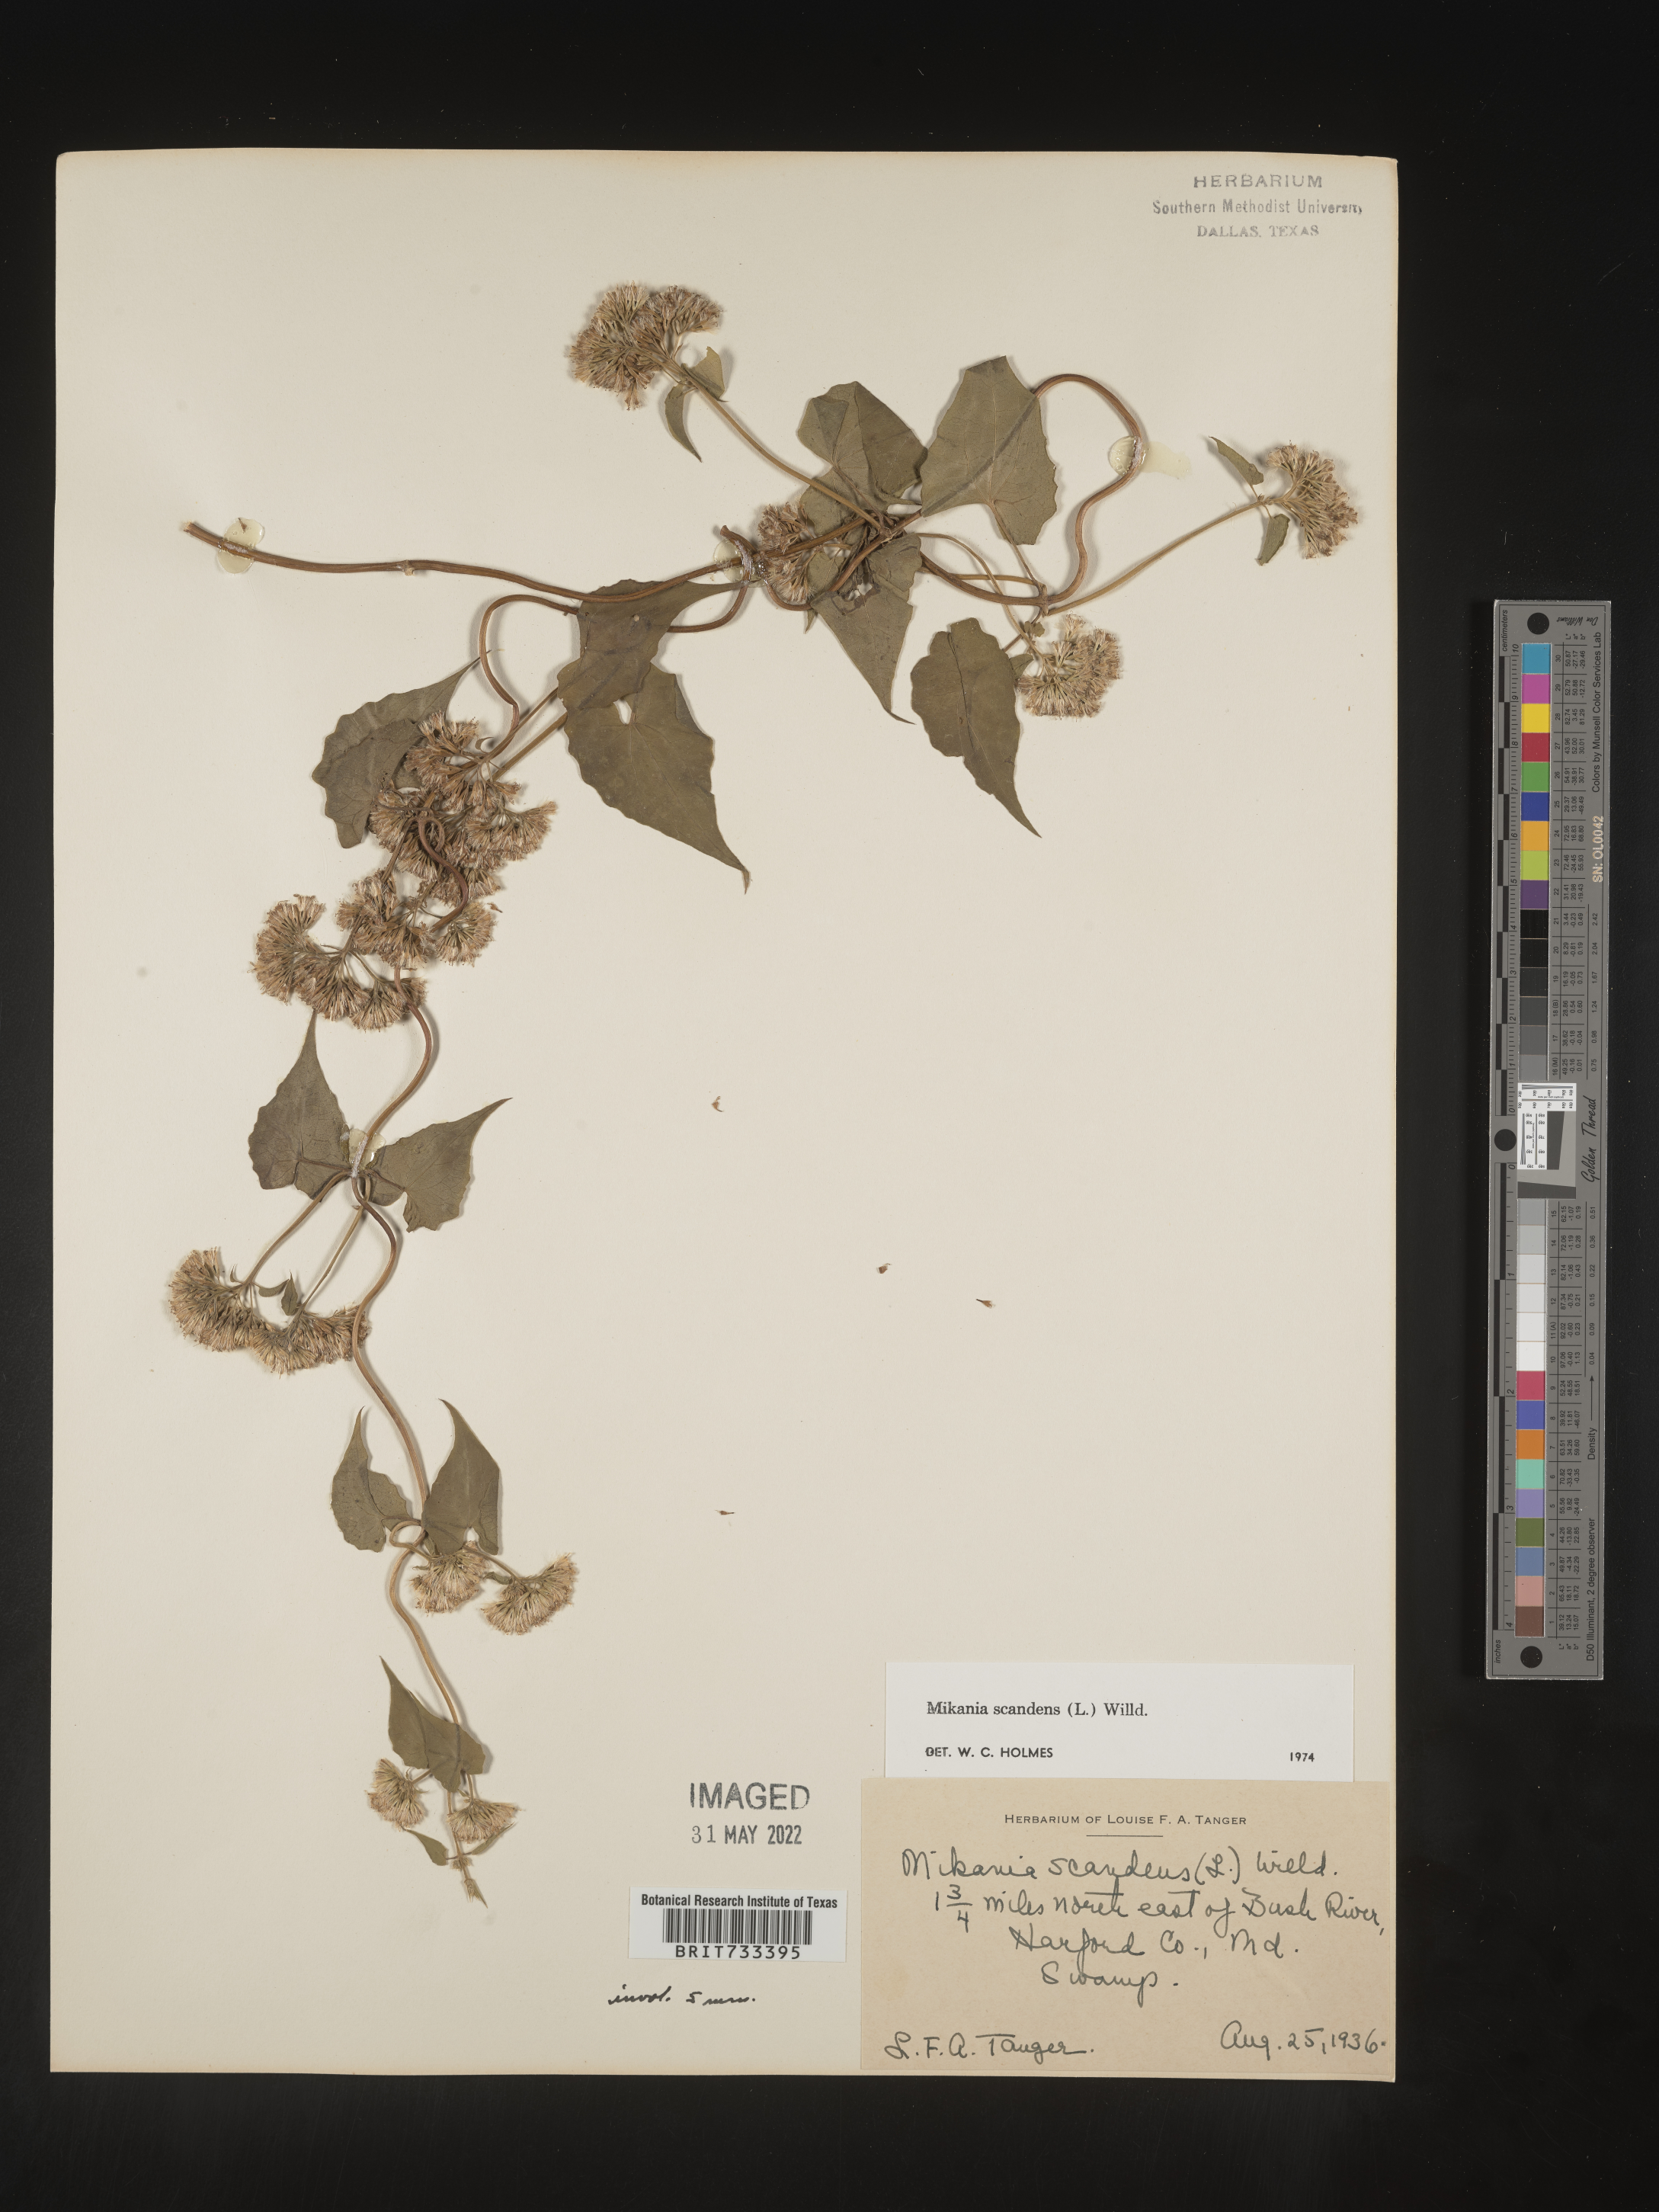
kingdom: Plantae
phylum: Tracheophyta
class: Magnoliopsida
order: Asterales
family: Asteraceae
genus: Mikania
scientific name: Mikania scandens
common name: Climbing hempvine
